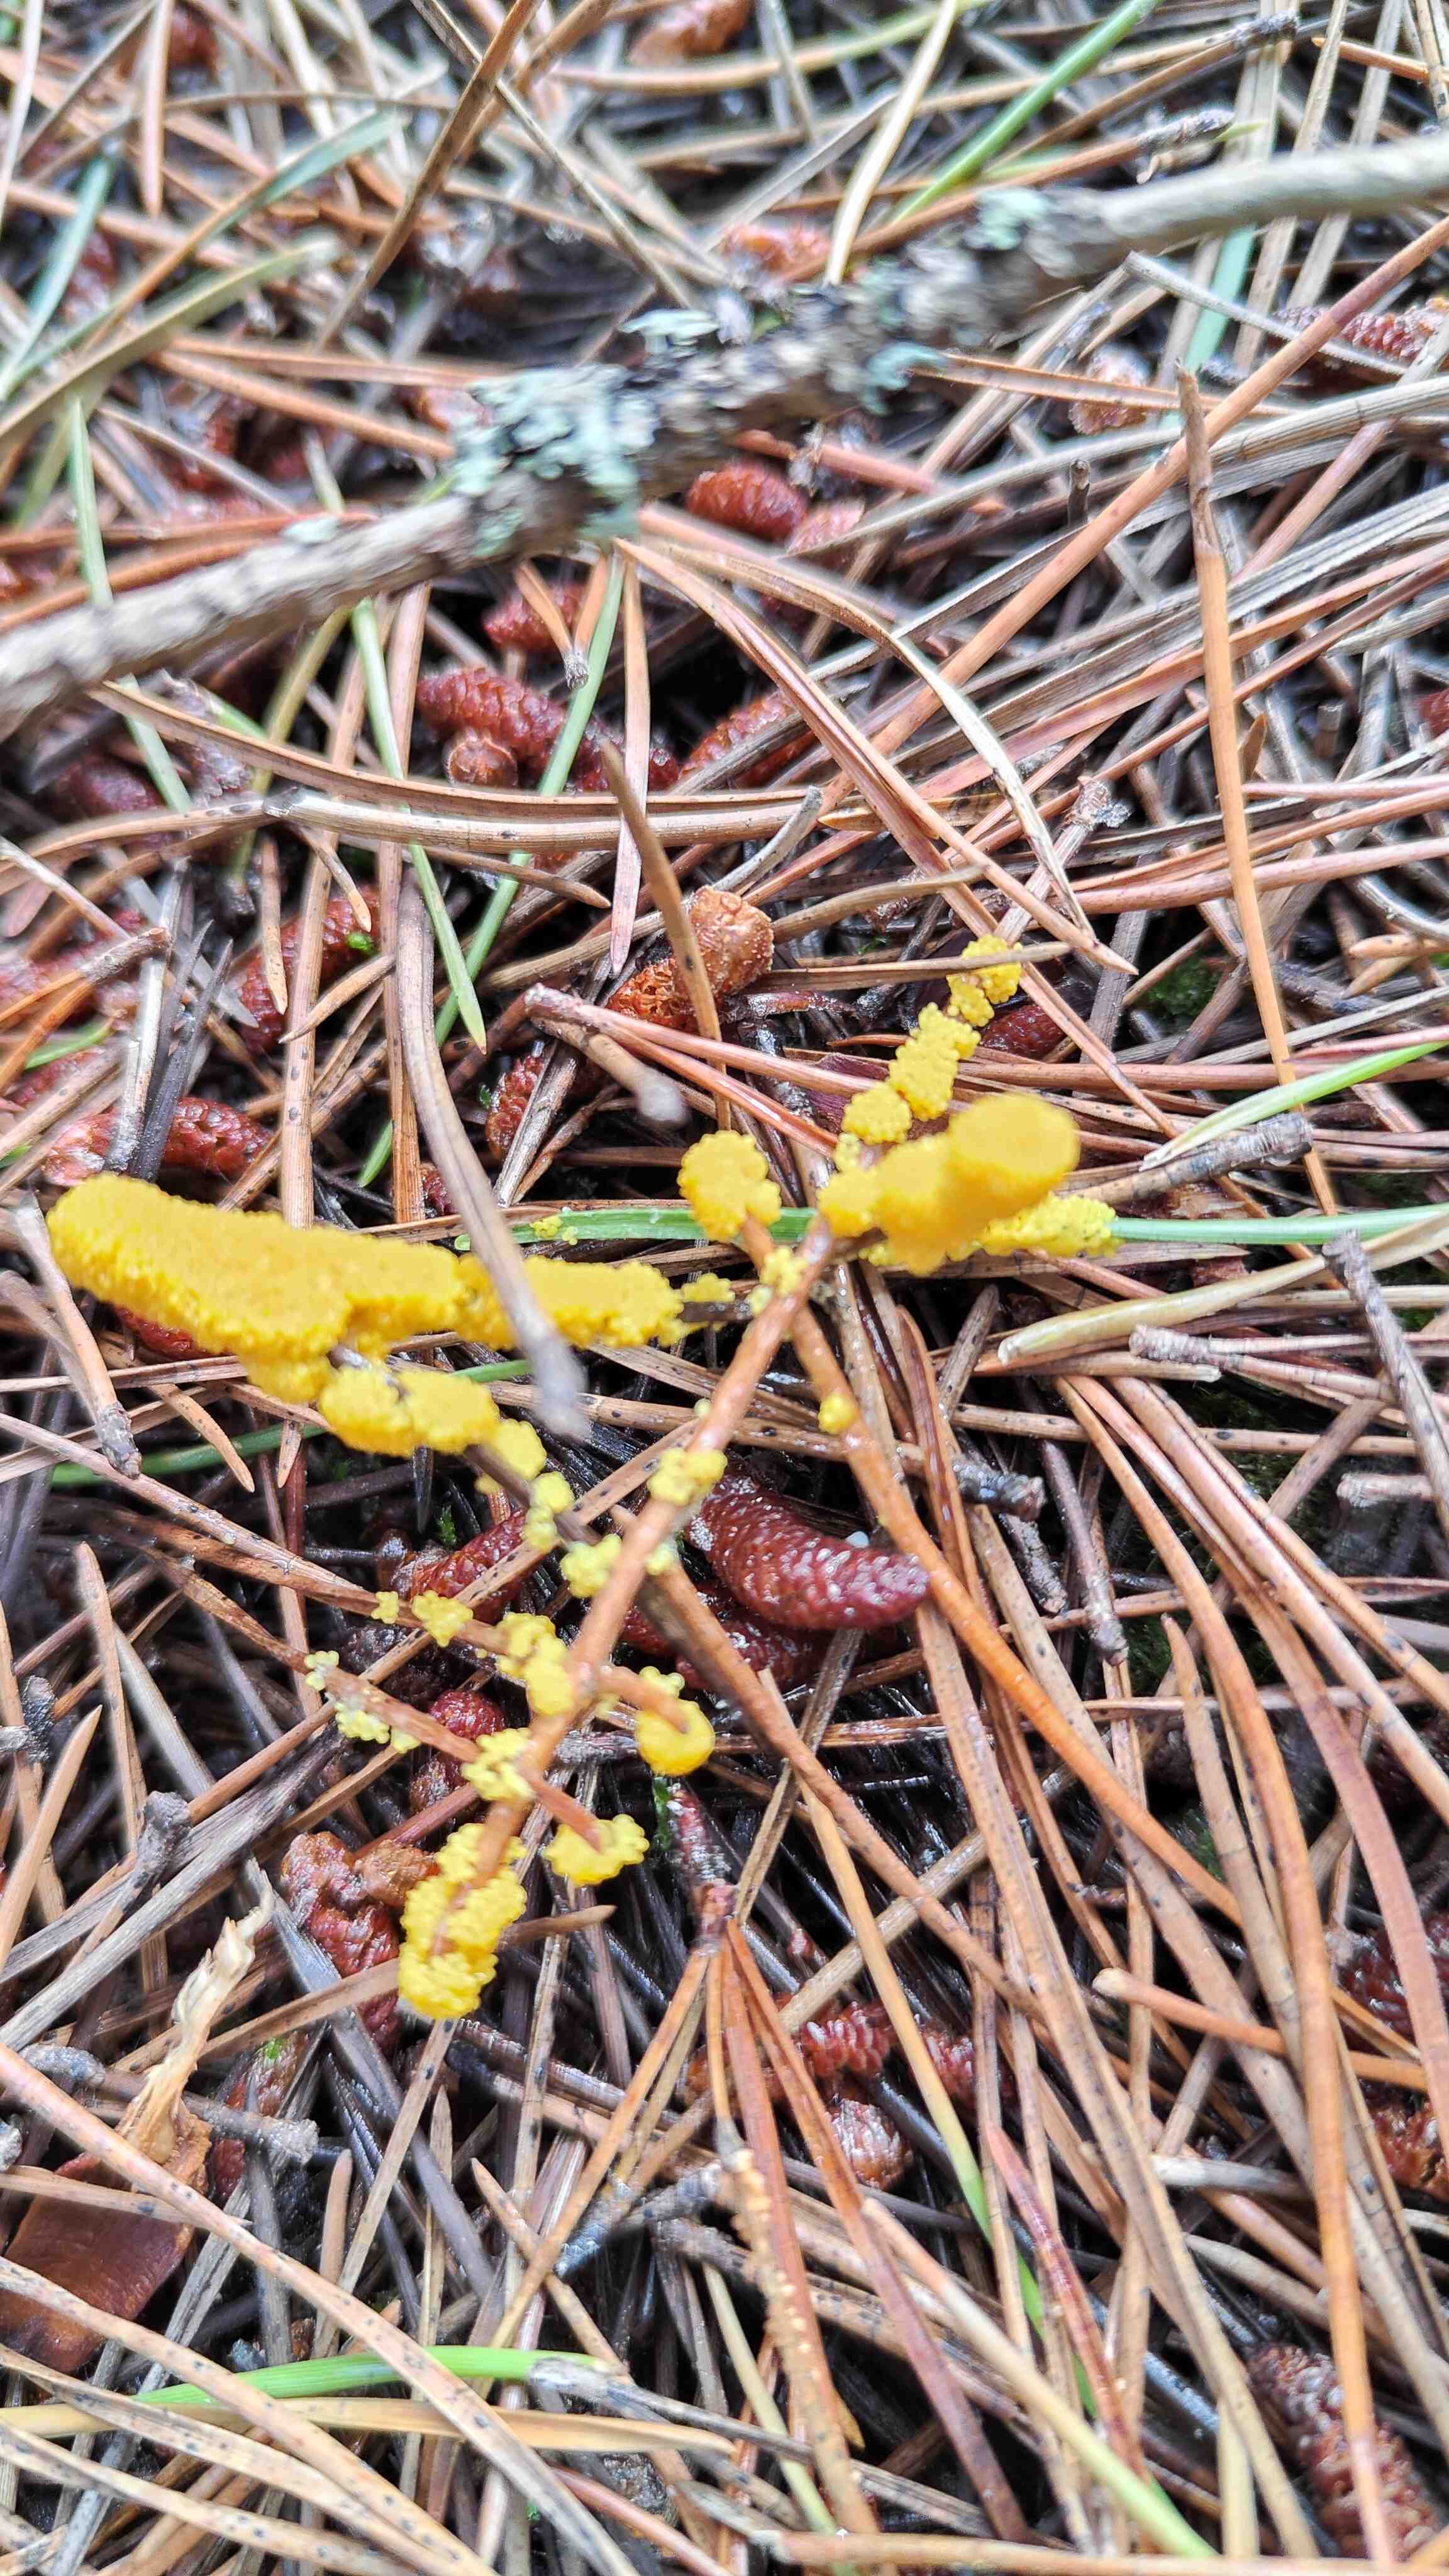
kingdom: Protozoa
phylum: Mycetozoa
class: Myxomycetes
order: Physarales
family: Physaraceae
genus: Fuligo
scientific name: Fuligo septica
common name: gul troldsmør
